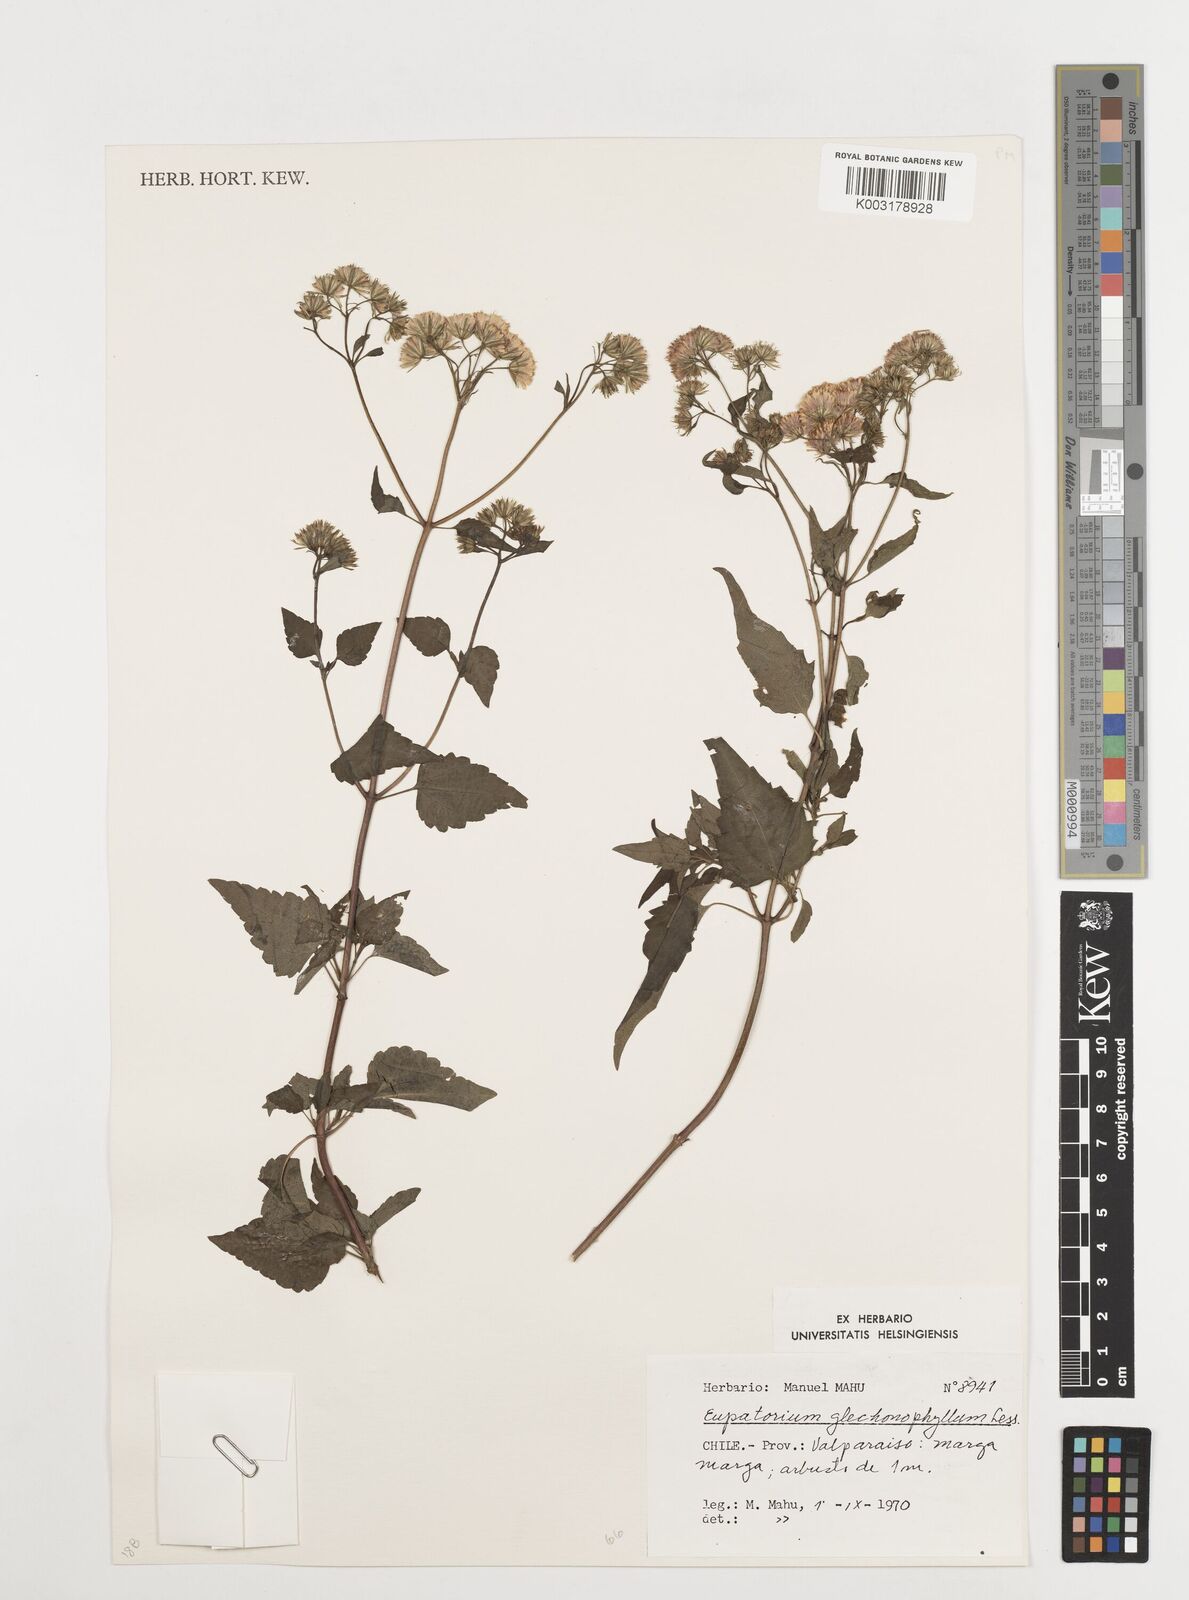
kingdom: Plantae
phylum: Tracheophyta
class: Magnoliopsida
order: Asterales
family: Asteraceae
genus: Ageratina
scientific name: Ageratina glechonophylla
